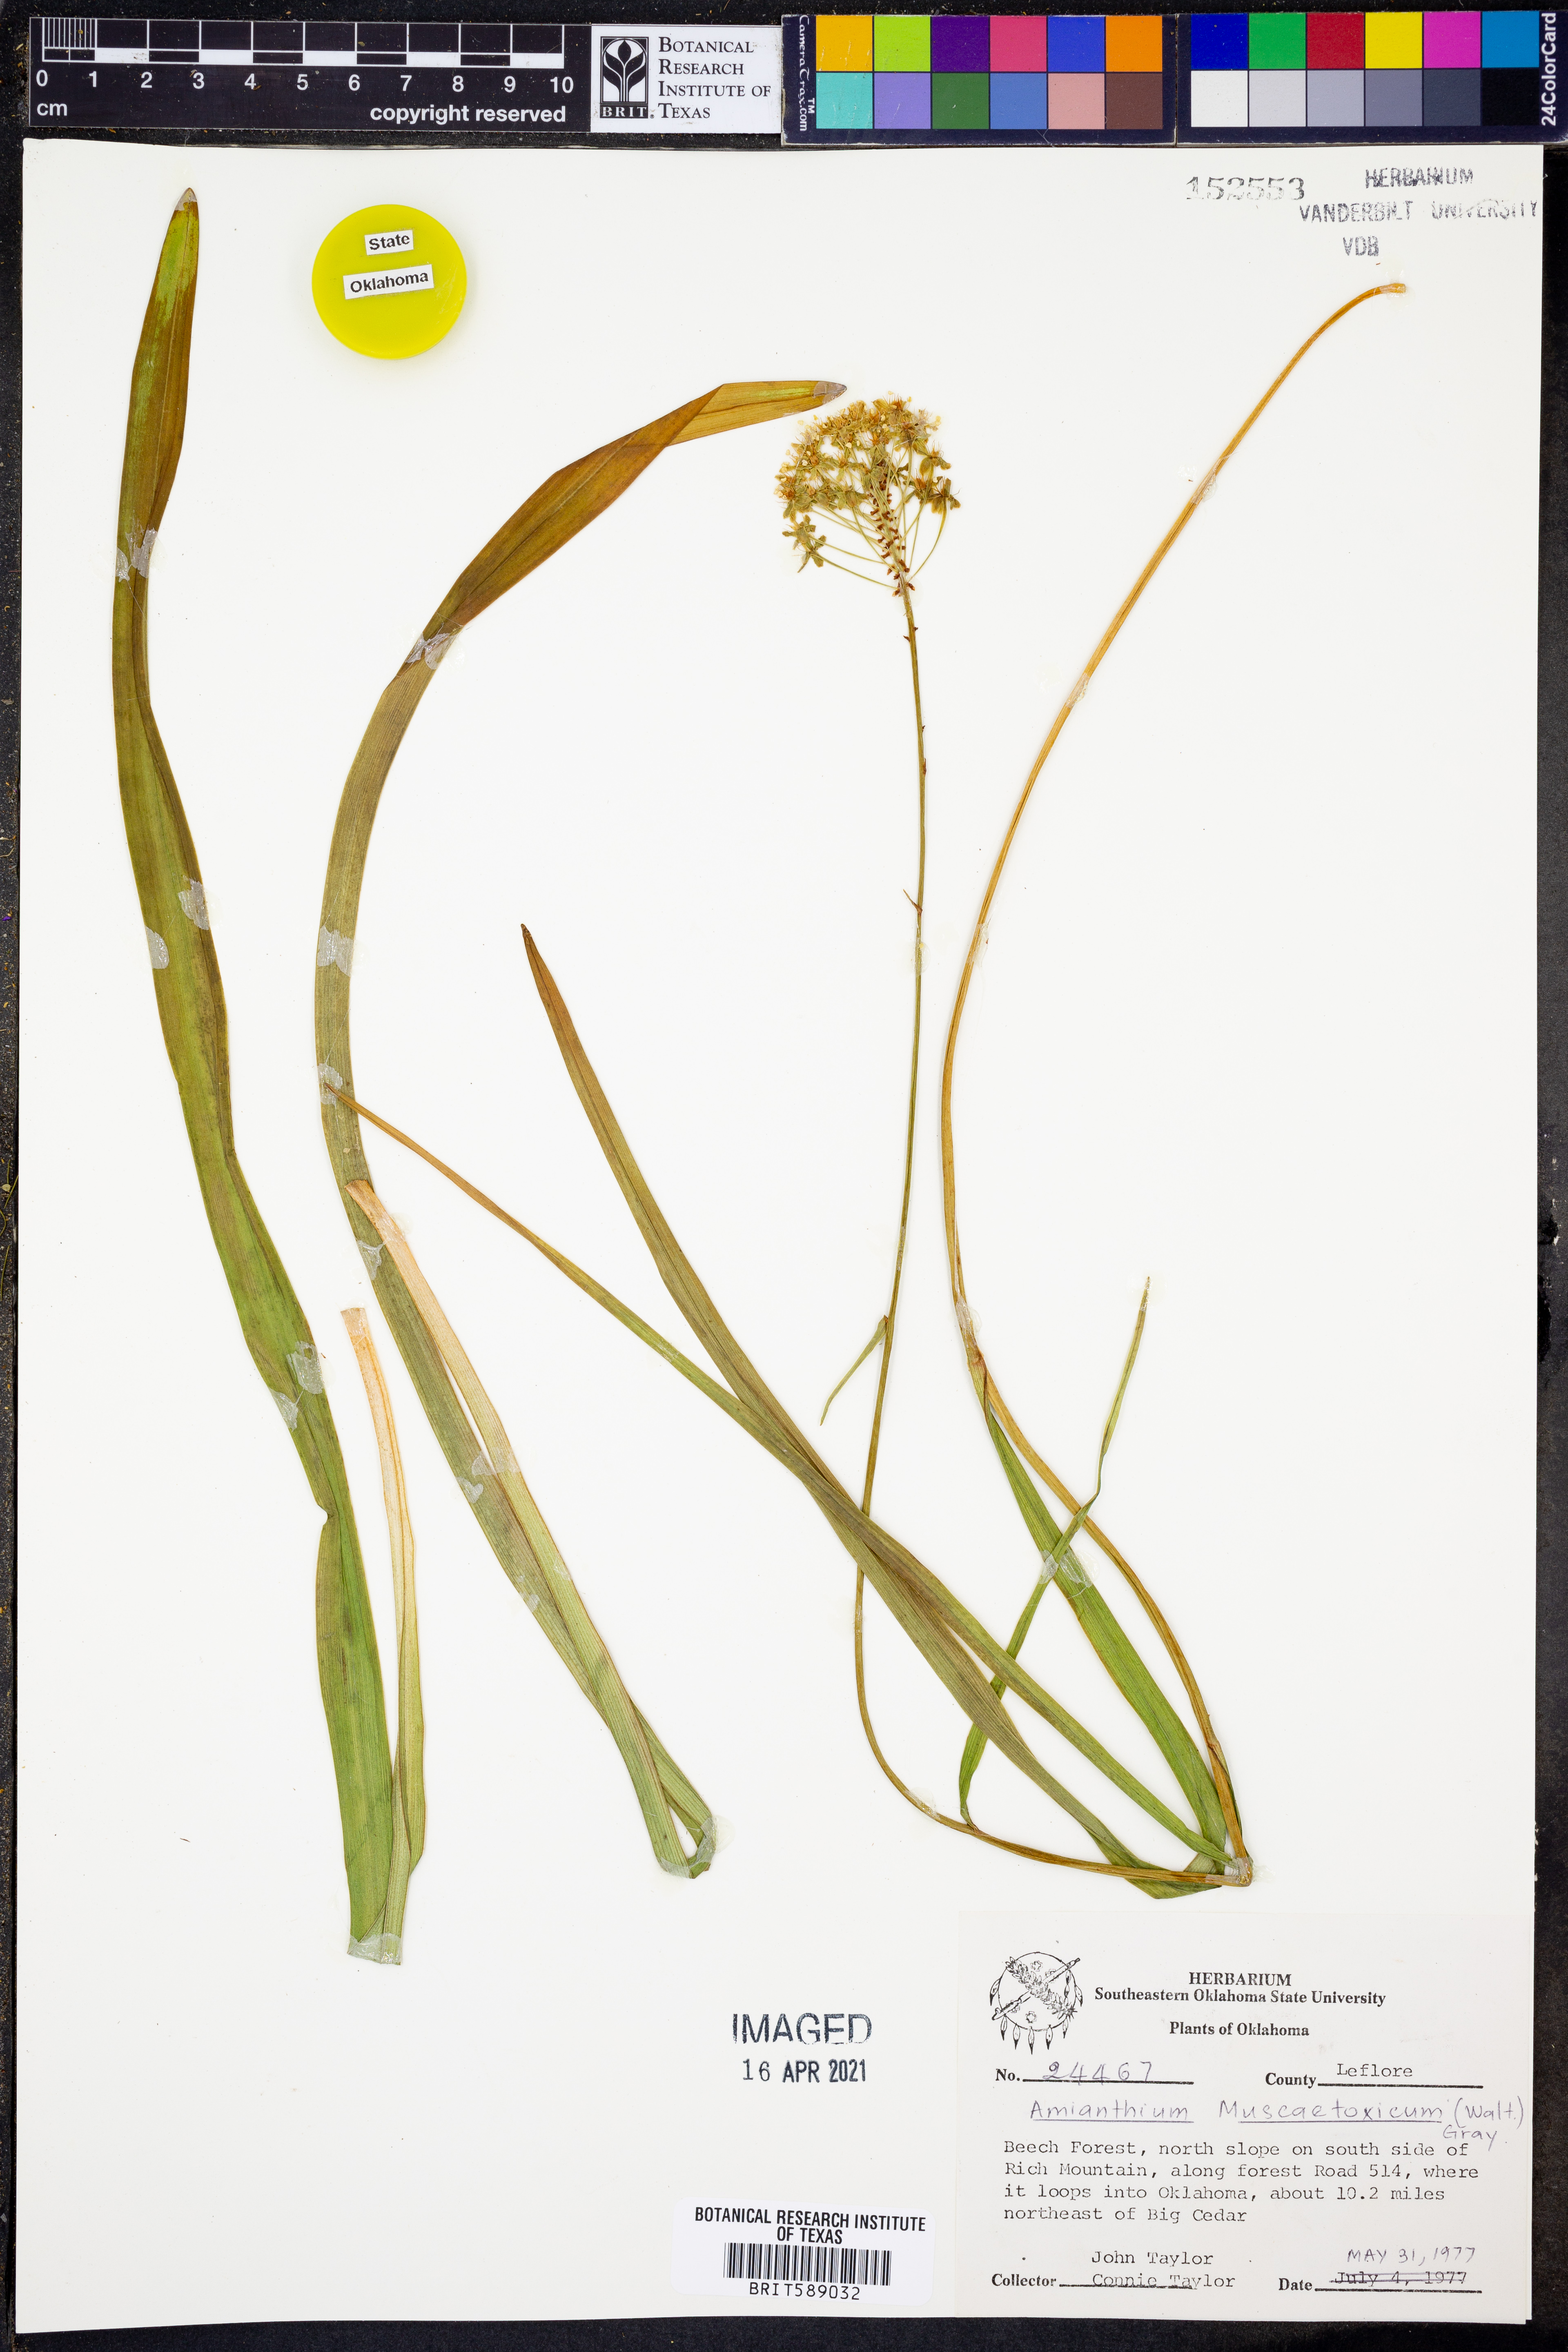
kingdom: Plantae
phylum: Tracheophyta
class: Liliopsida
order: Liliales
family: Melanthiaceae
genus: Amianthium
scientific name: Amianthium muscitoxicum
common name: Fly-poison
